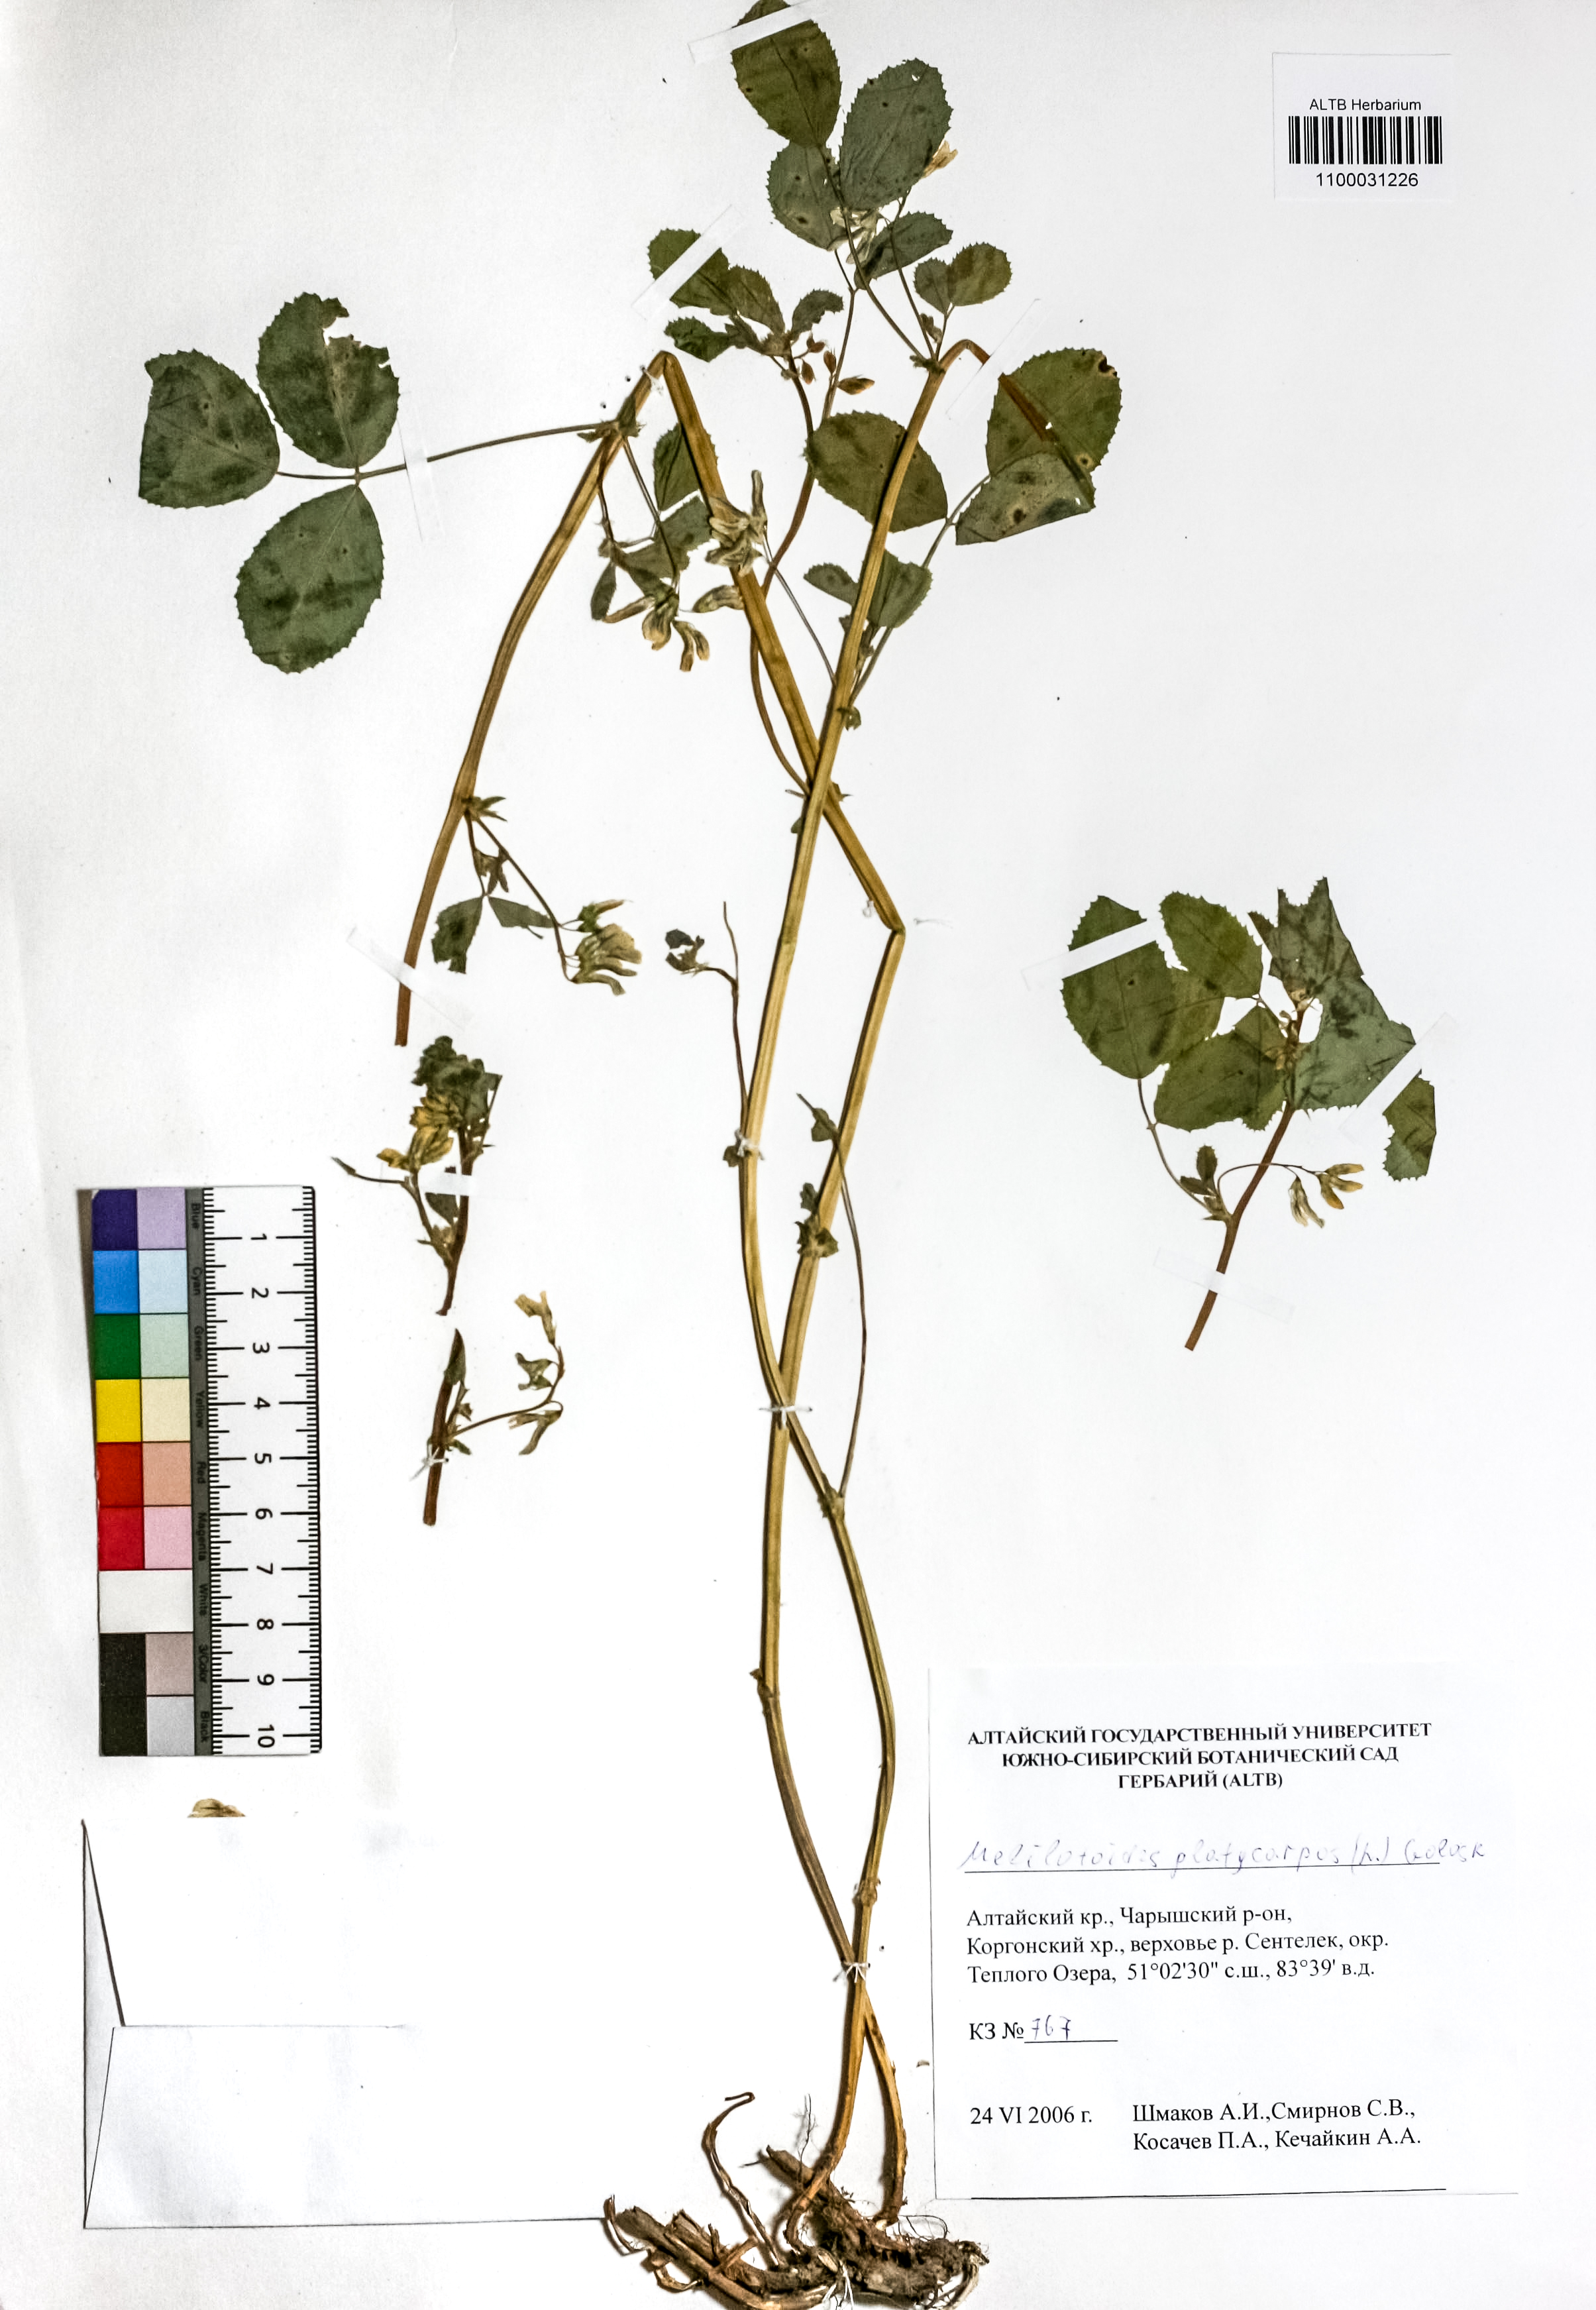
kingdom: Plantae
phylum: Tracheophyta
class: Magnoliopsida
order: Fabales
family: Fabaceae
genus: Medicago
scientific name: Medicago platycarpos
